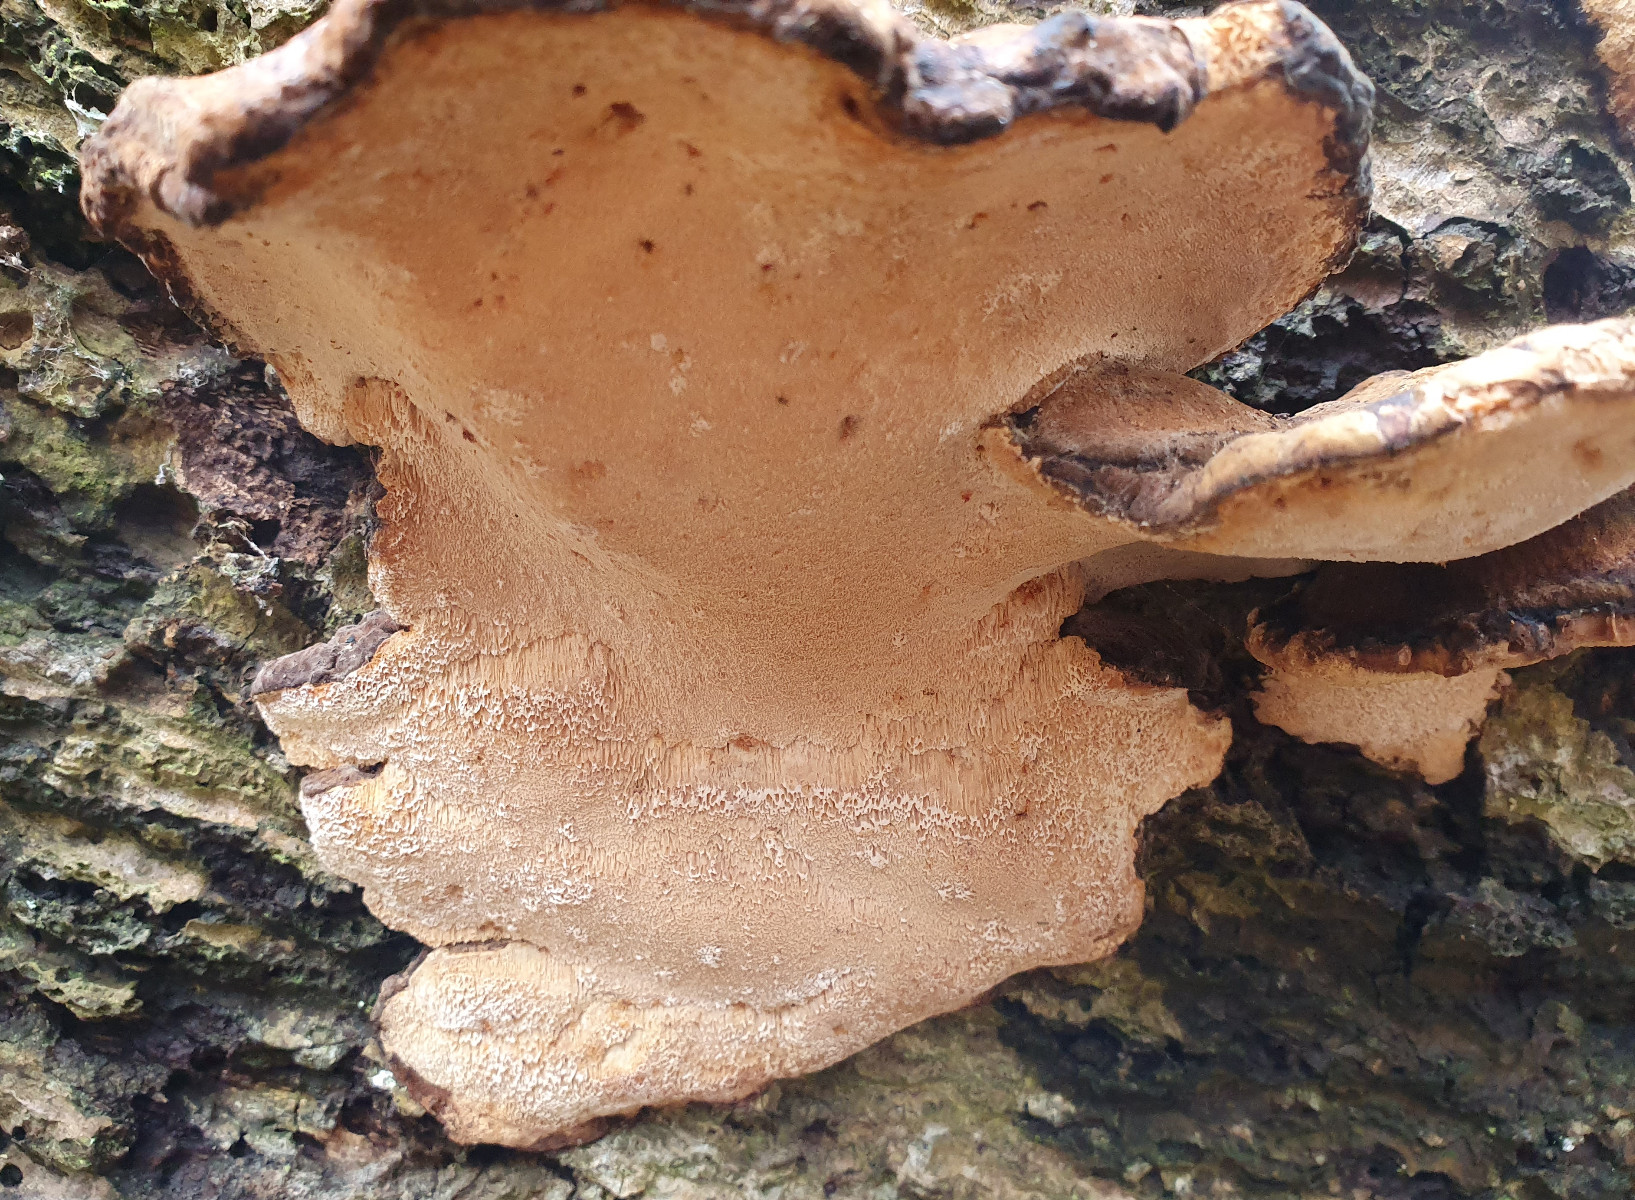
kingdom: Fungi
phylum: Basidiomycota
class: Agaricomycetes
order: Polyporales
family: Ischnodermataceae
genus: Ischnoderma
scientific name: Ischnoderma resinosum
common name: løv-tjæreporesvamp
